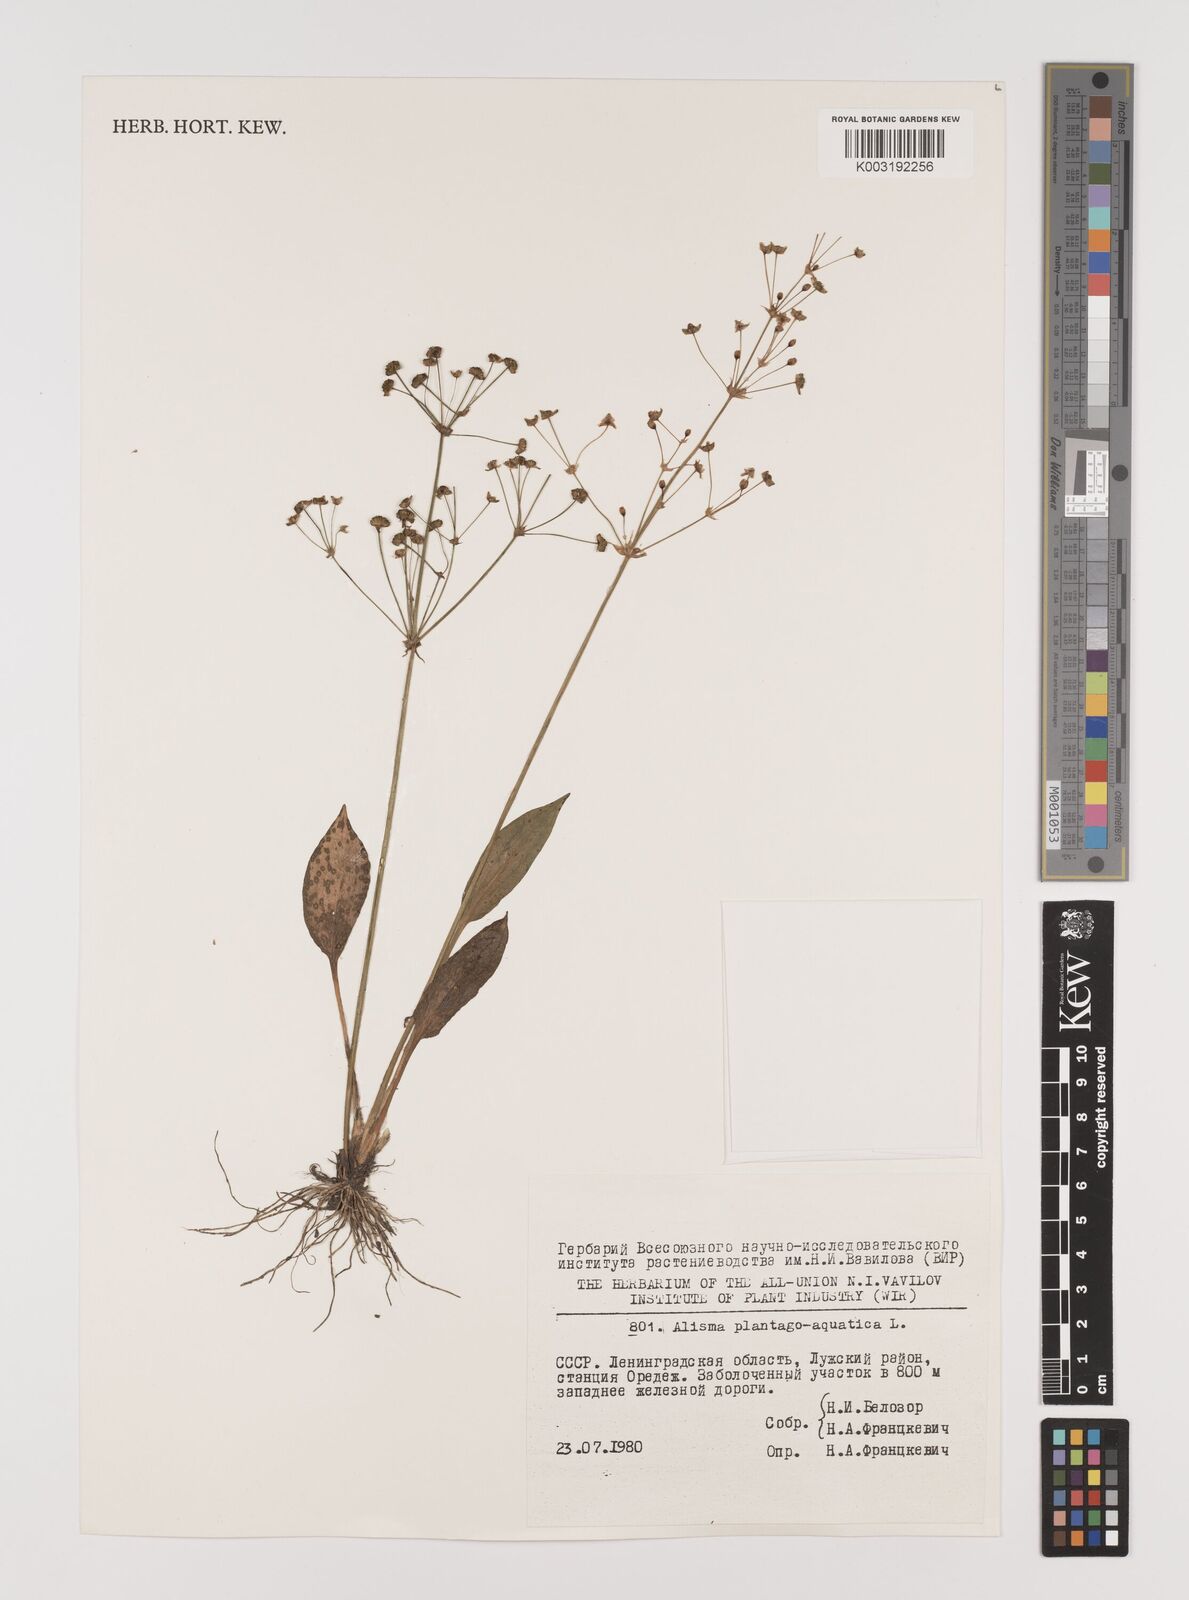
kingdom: Plantae
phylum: Tracheophyta
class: Liliopsida
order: Alismatales
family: Alismataceae
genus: Alisma
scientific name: Alisma plantago-aquatica
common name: Water-plantain
